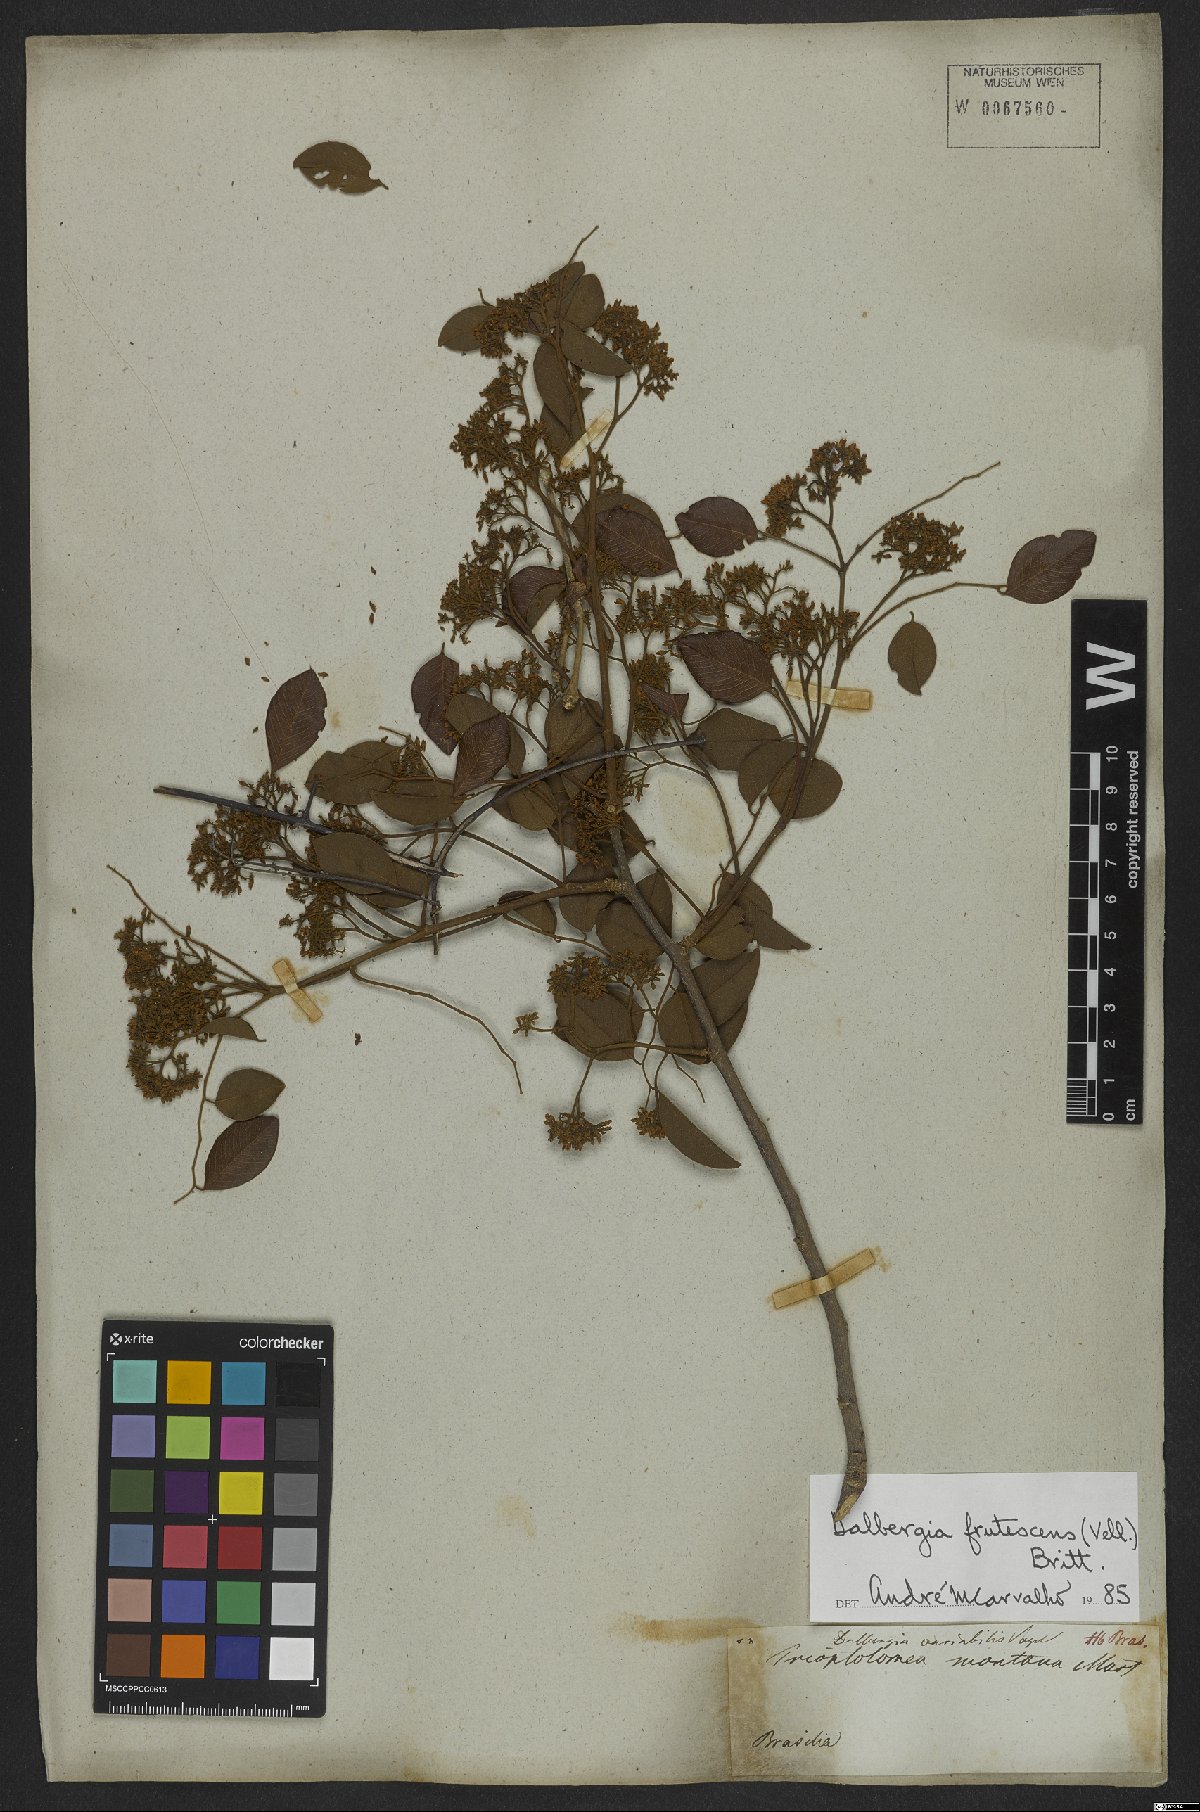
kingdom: Plantae
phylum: Tracheophyta
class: Magnoliopsida
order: Fabales
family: Fabaceae
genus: Dalbergia
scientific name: Dalbergia frutescens
